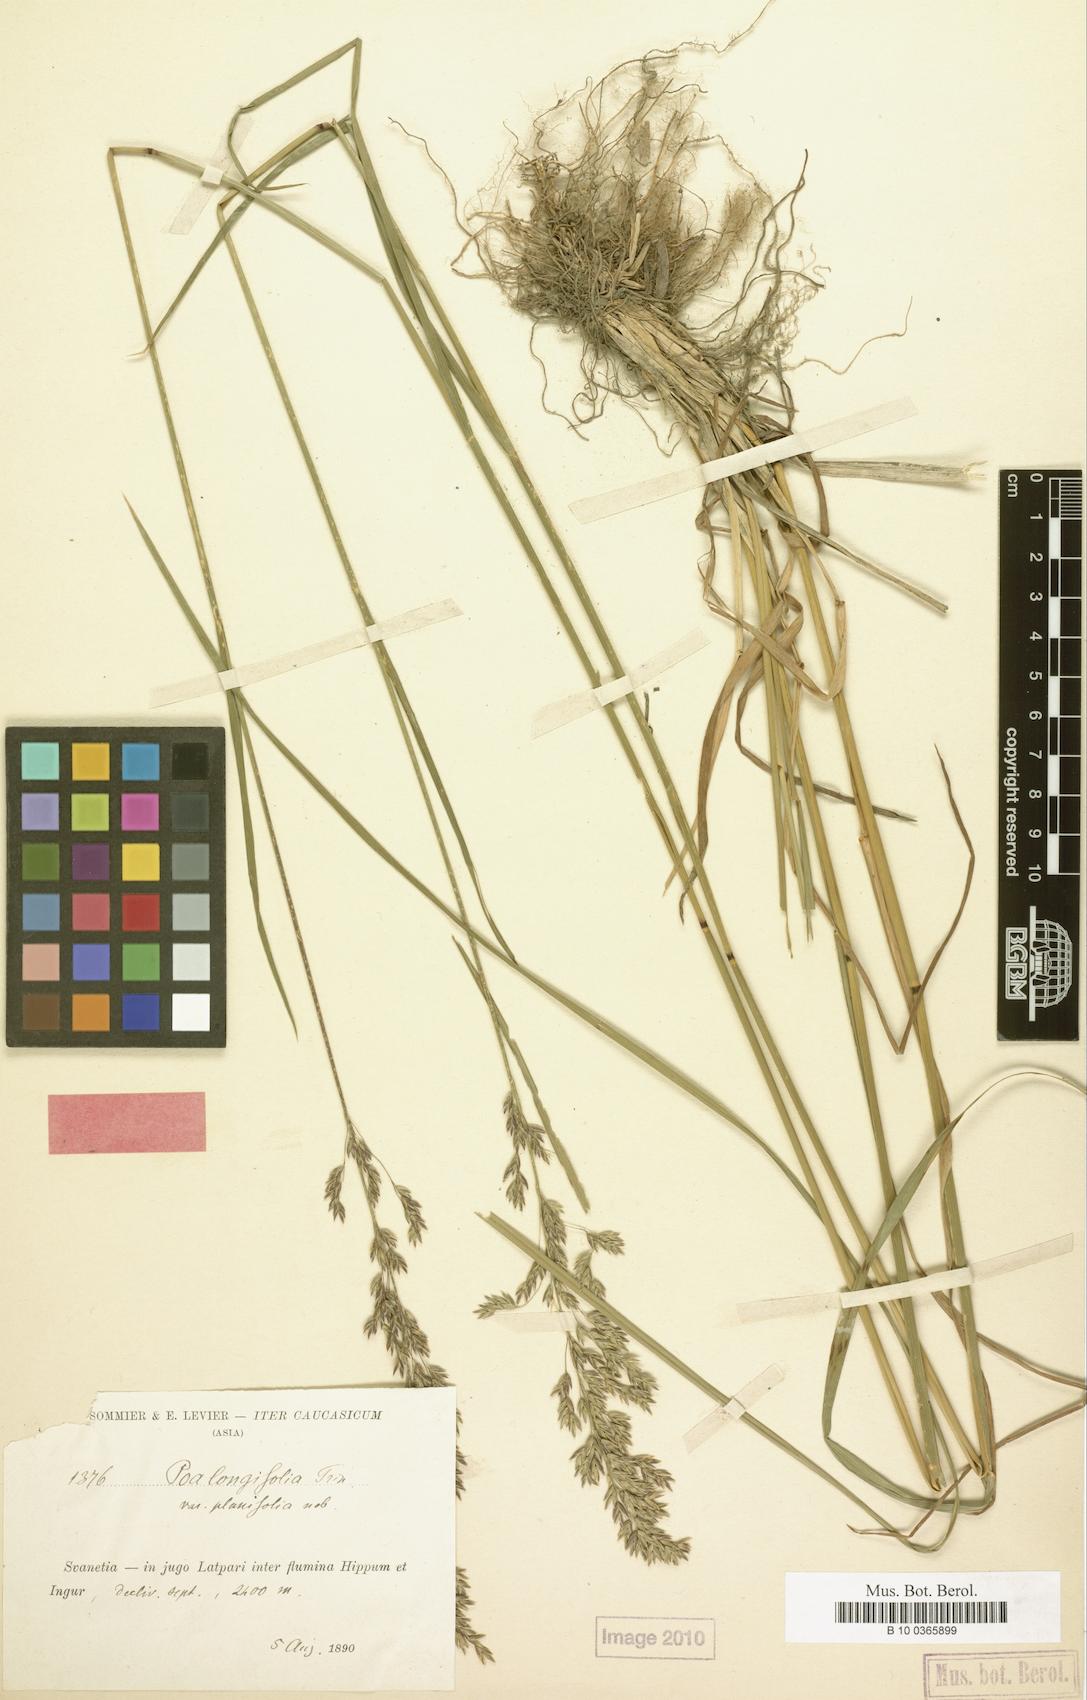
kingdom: Plantae
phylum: Tracheophyta
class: Liliopsida
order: Poales
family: Poaceae
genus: Poa
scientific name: Poa iberica
